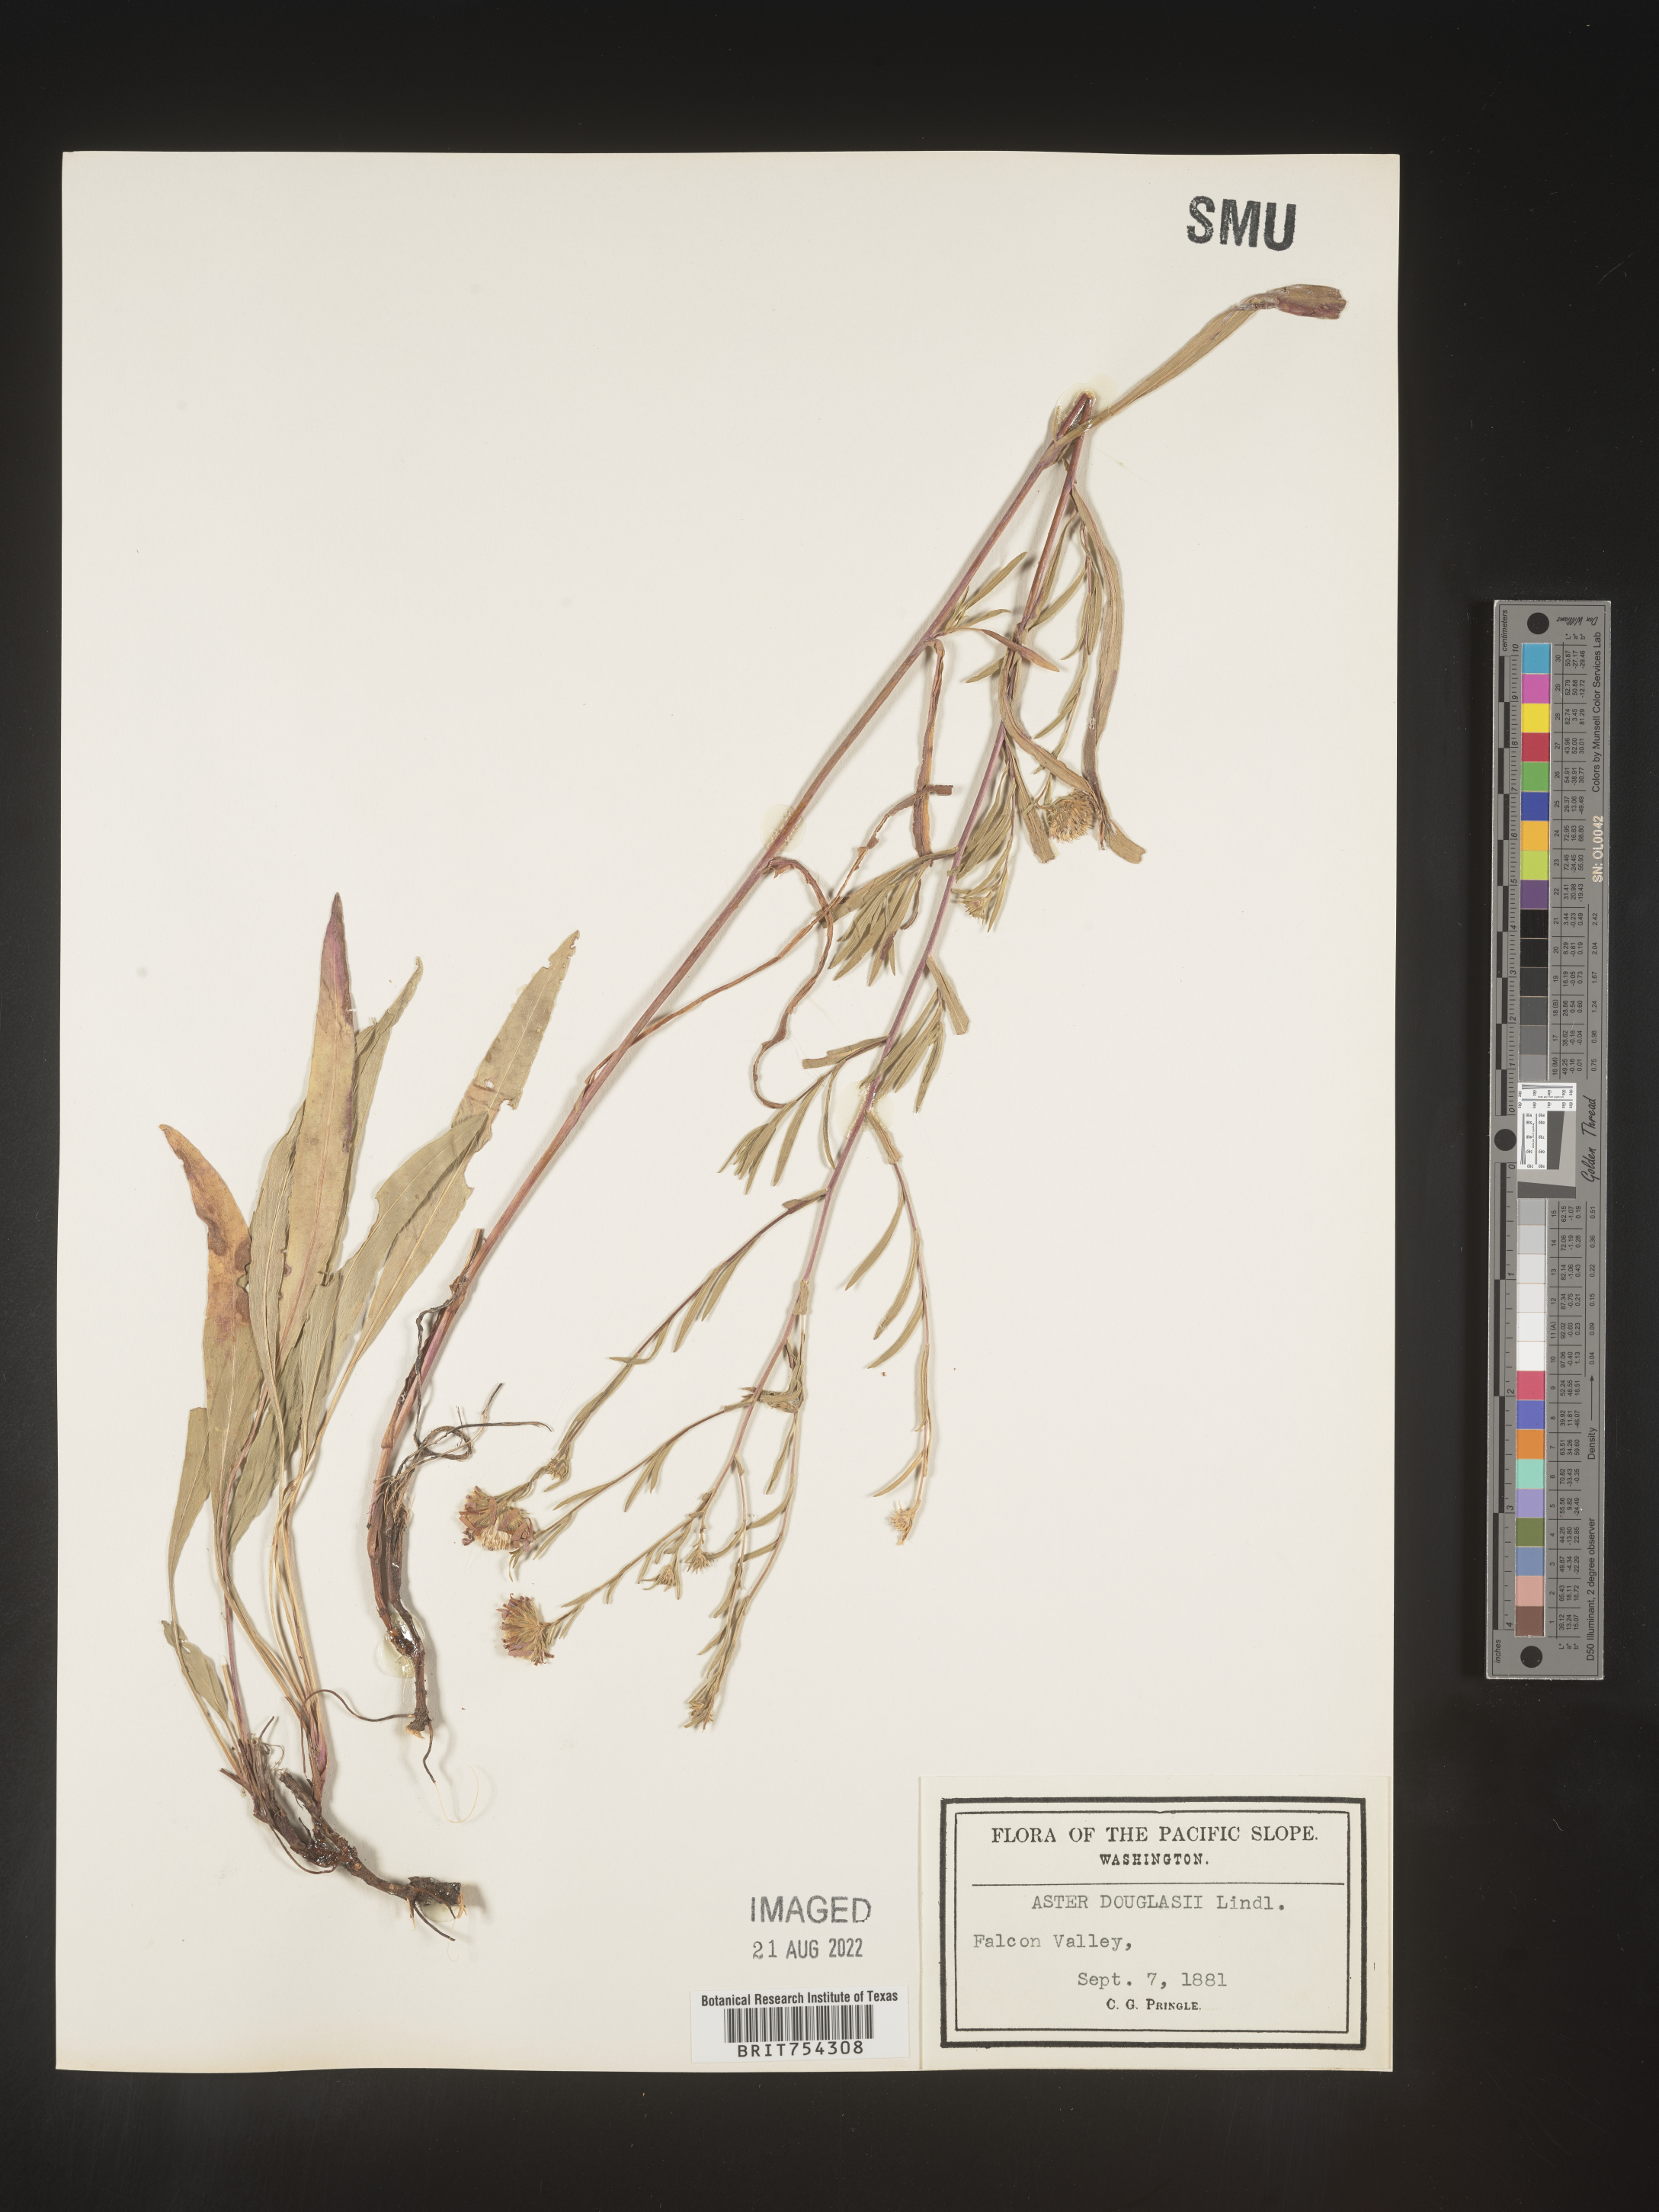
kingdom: Plantae
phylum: Tracheophyta
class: Magnoliopsida
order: Asterales
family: Asteraceae
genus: Symphyotrichum
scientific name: Symphyotrichum subspicatum
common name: Douglas' aster
